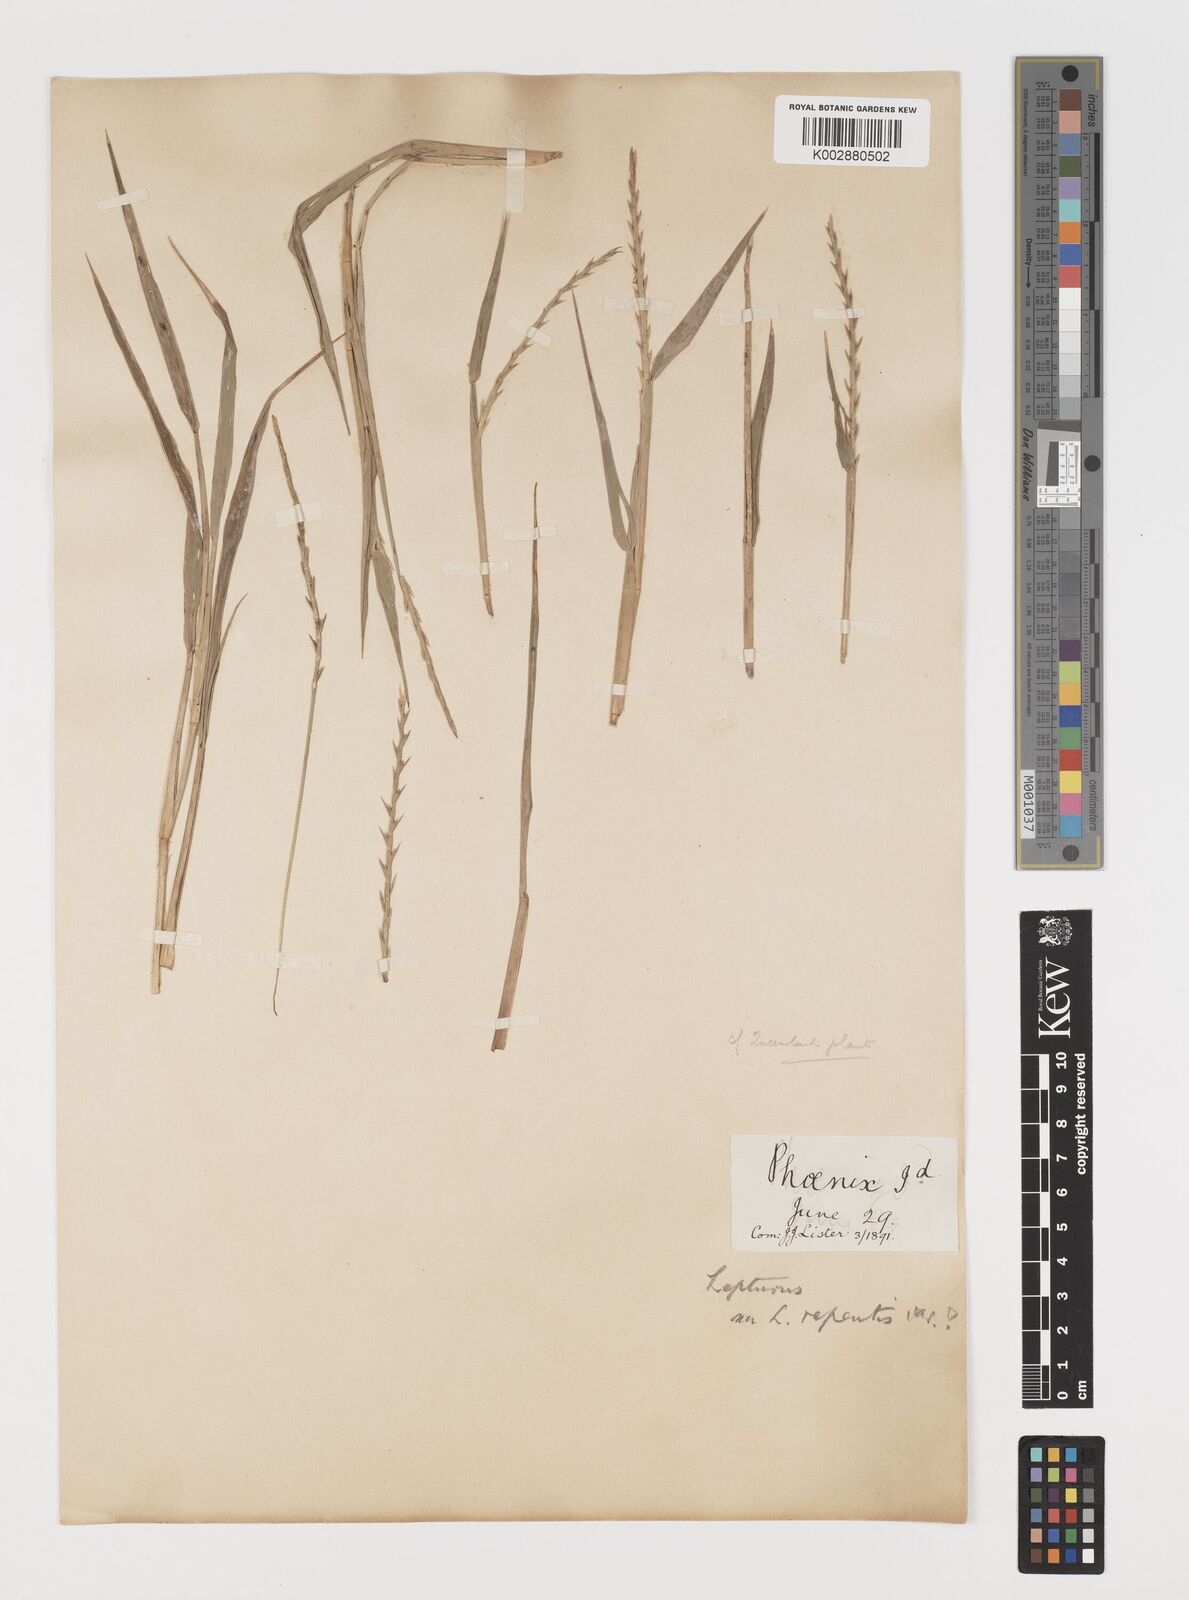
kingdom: Plantae
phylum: Tracheophyta
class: Liliopsida
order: Poales
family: Poaceae
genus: Lepturus
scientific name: Lepturus repens
